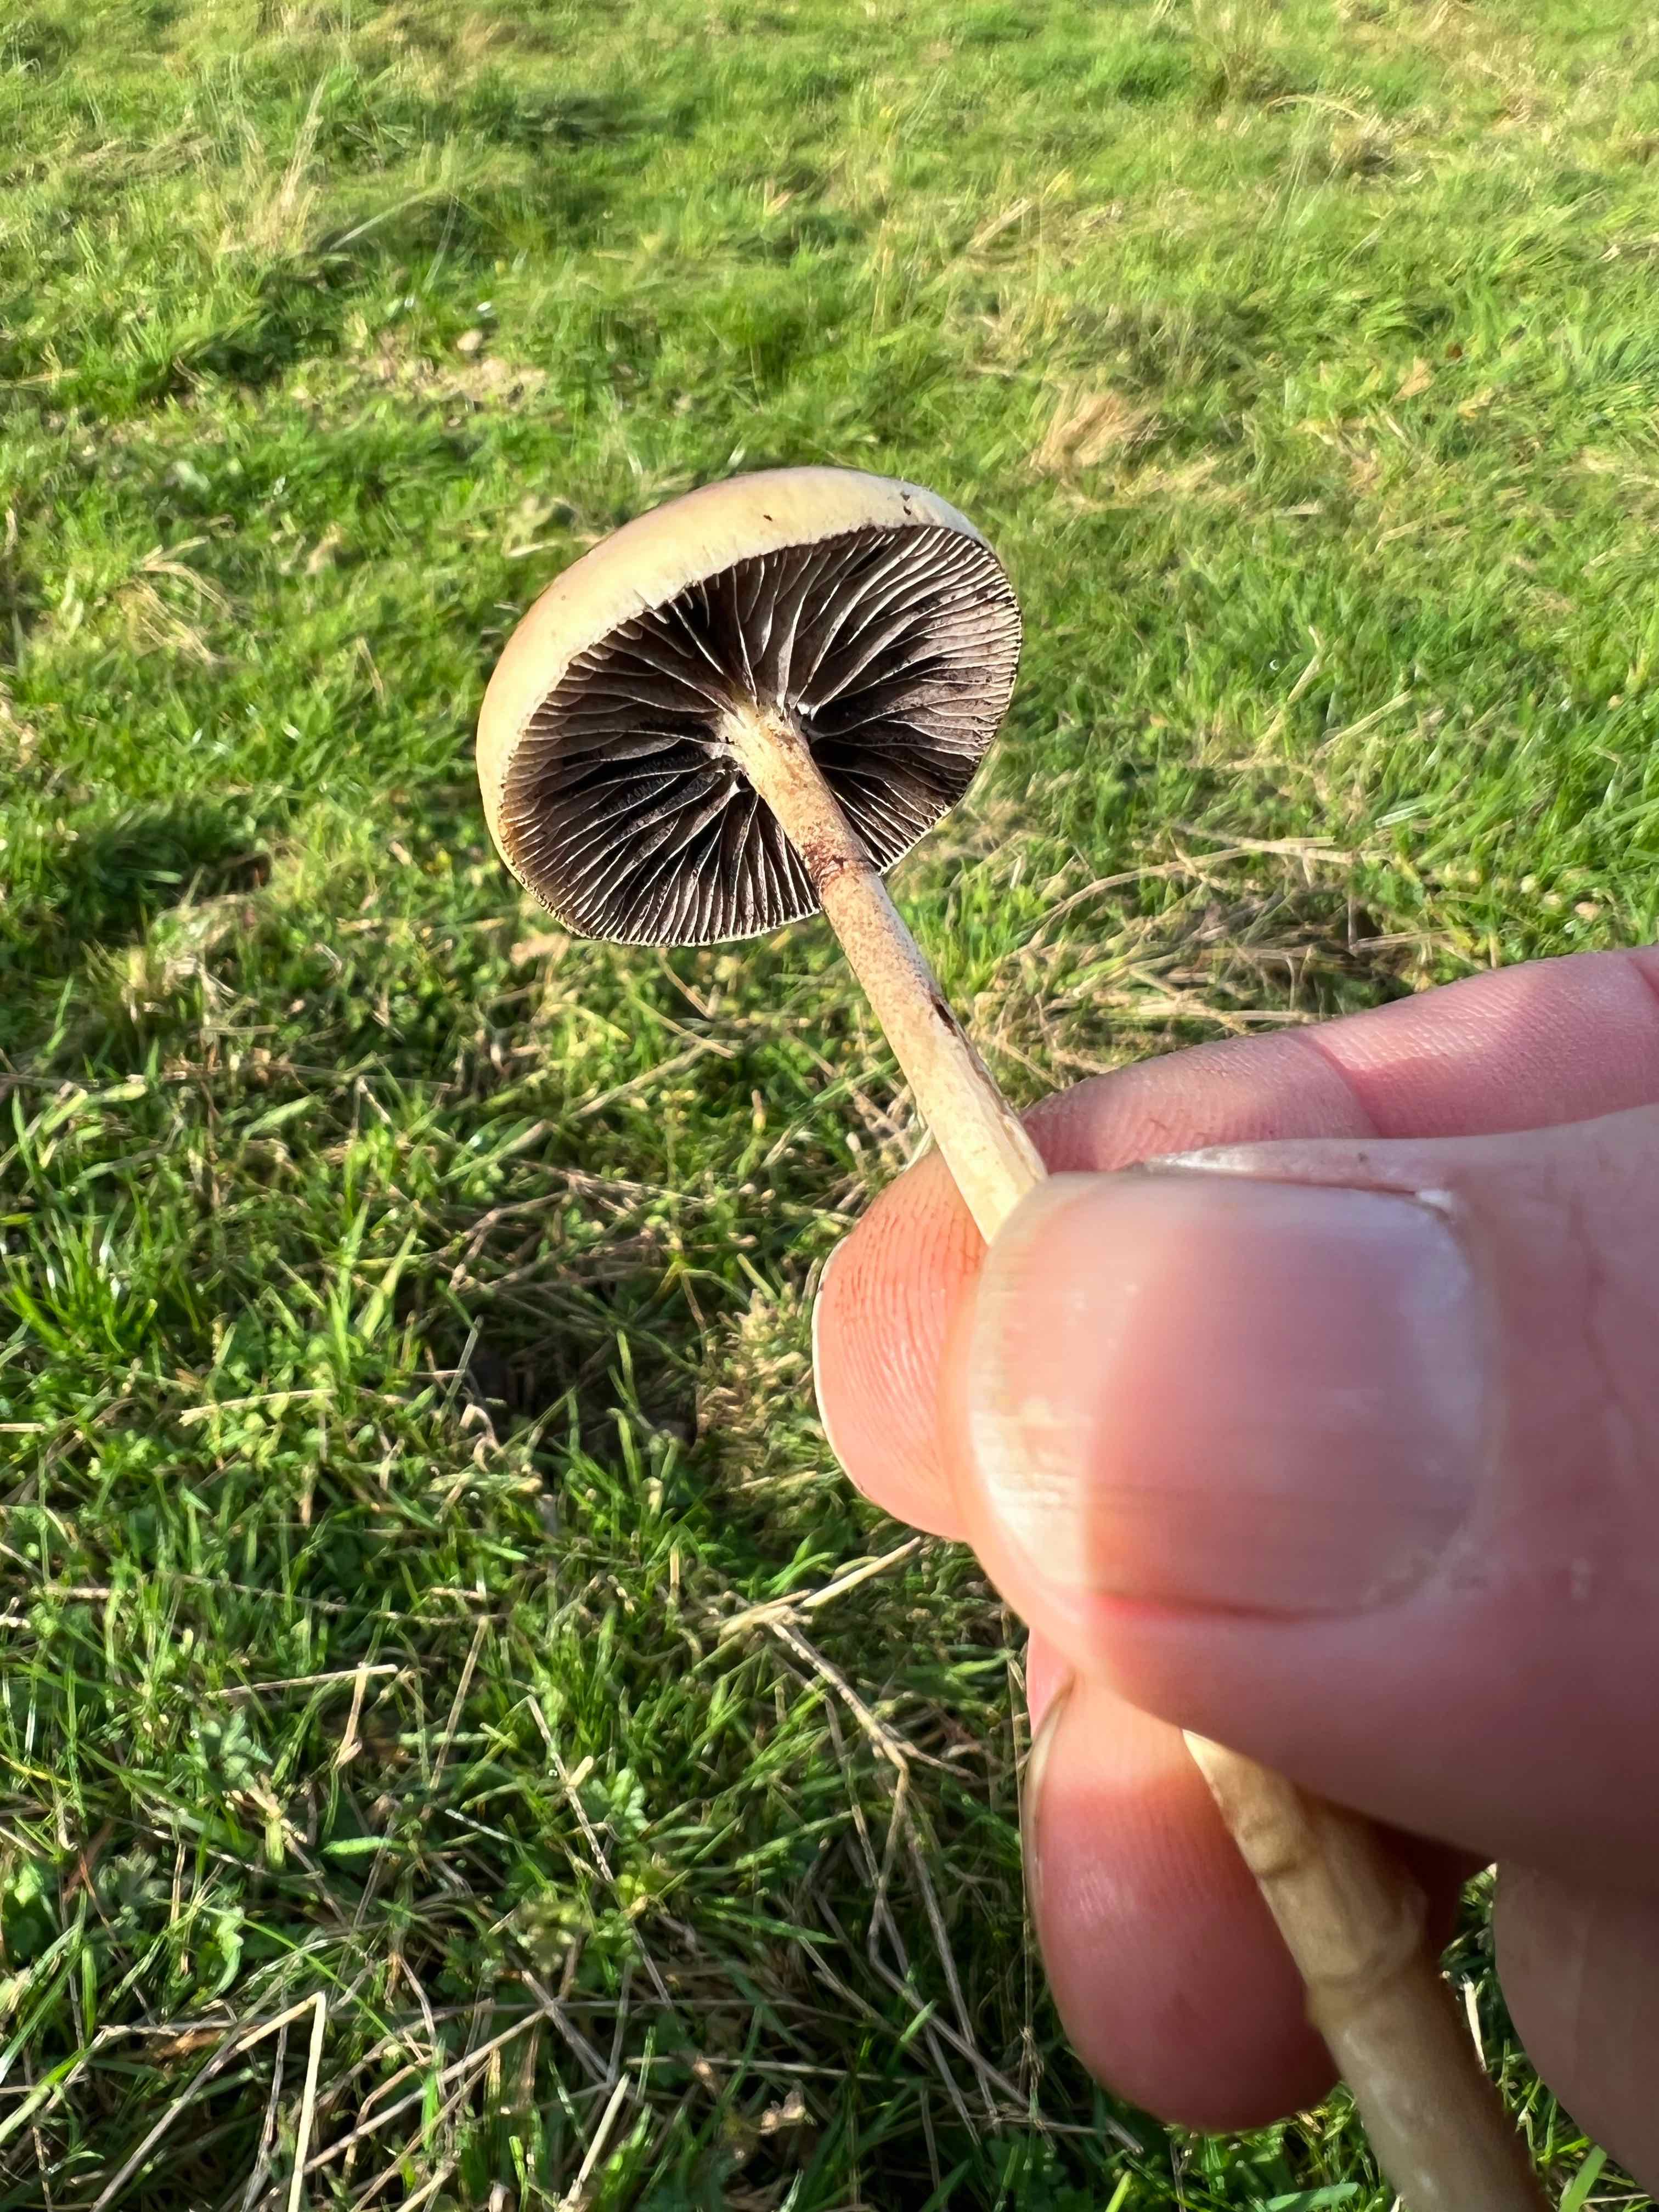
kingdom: Fungi
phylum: Basidiomycota
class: Agaricomycetes
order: Agaricales
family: Strophariaceae
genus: Protostropharia
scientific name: Protostropharia semiglobata
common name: halvkugleformet bredblad
